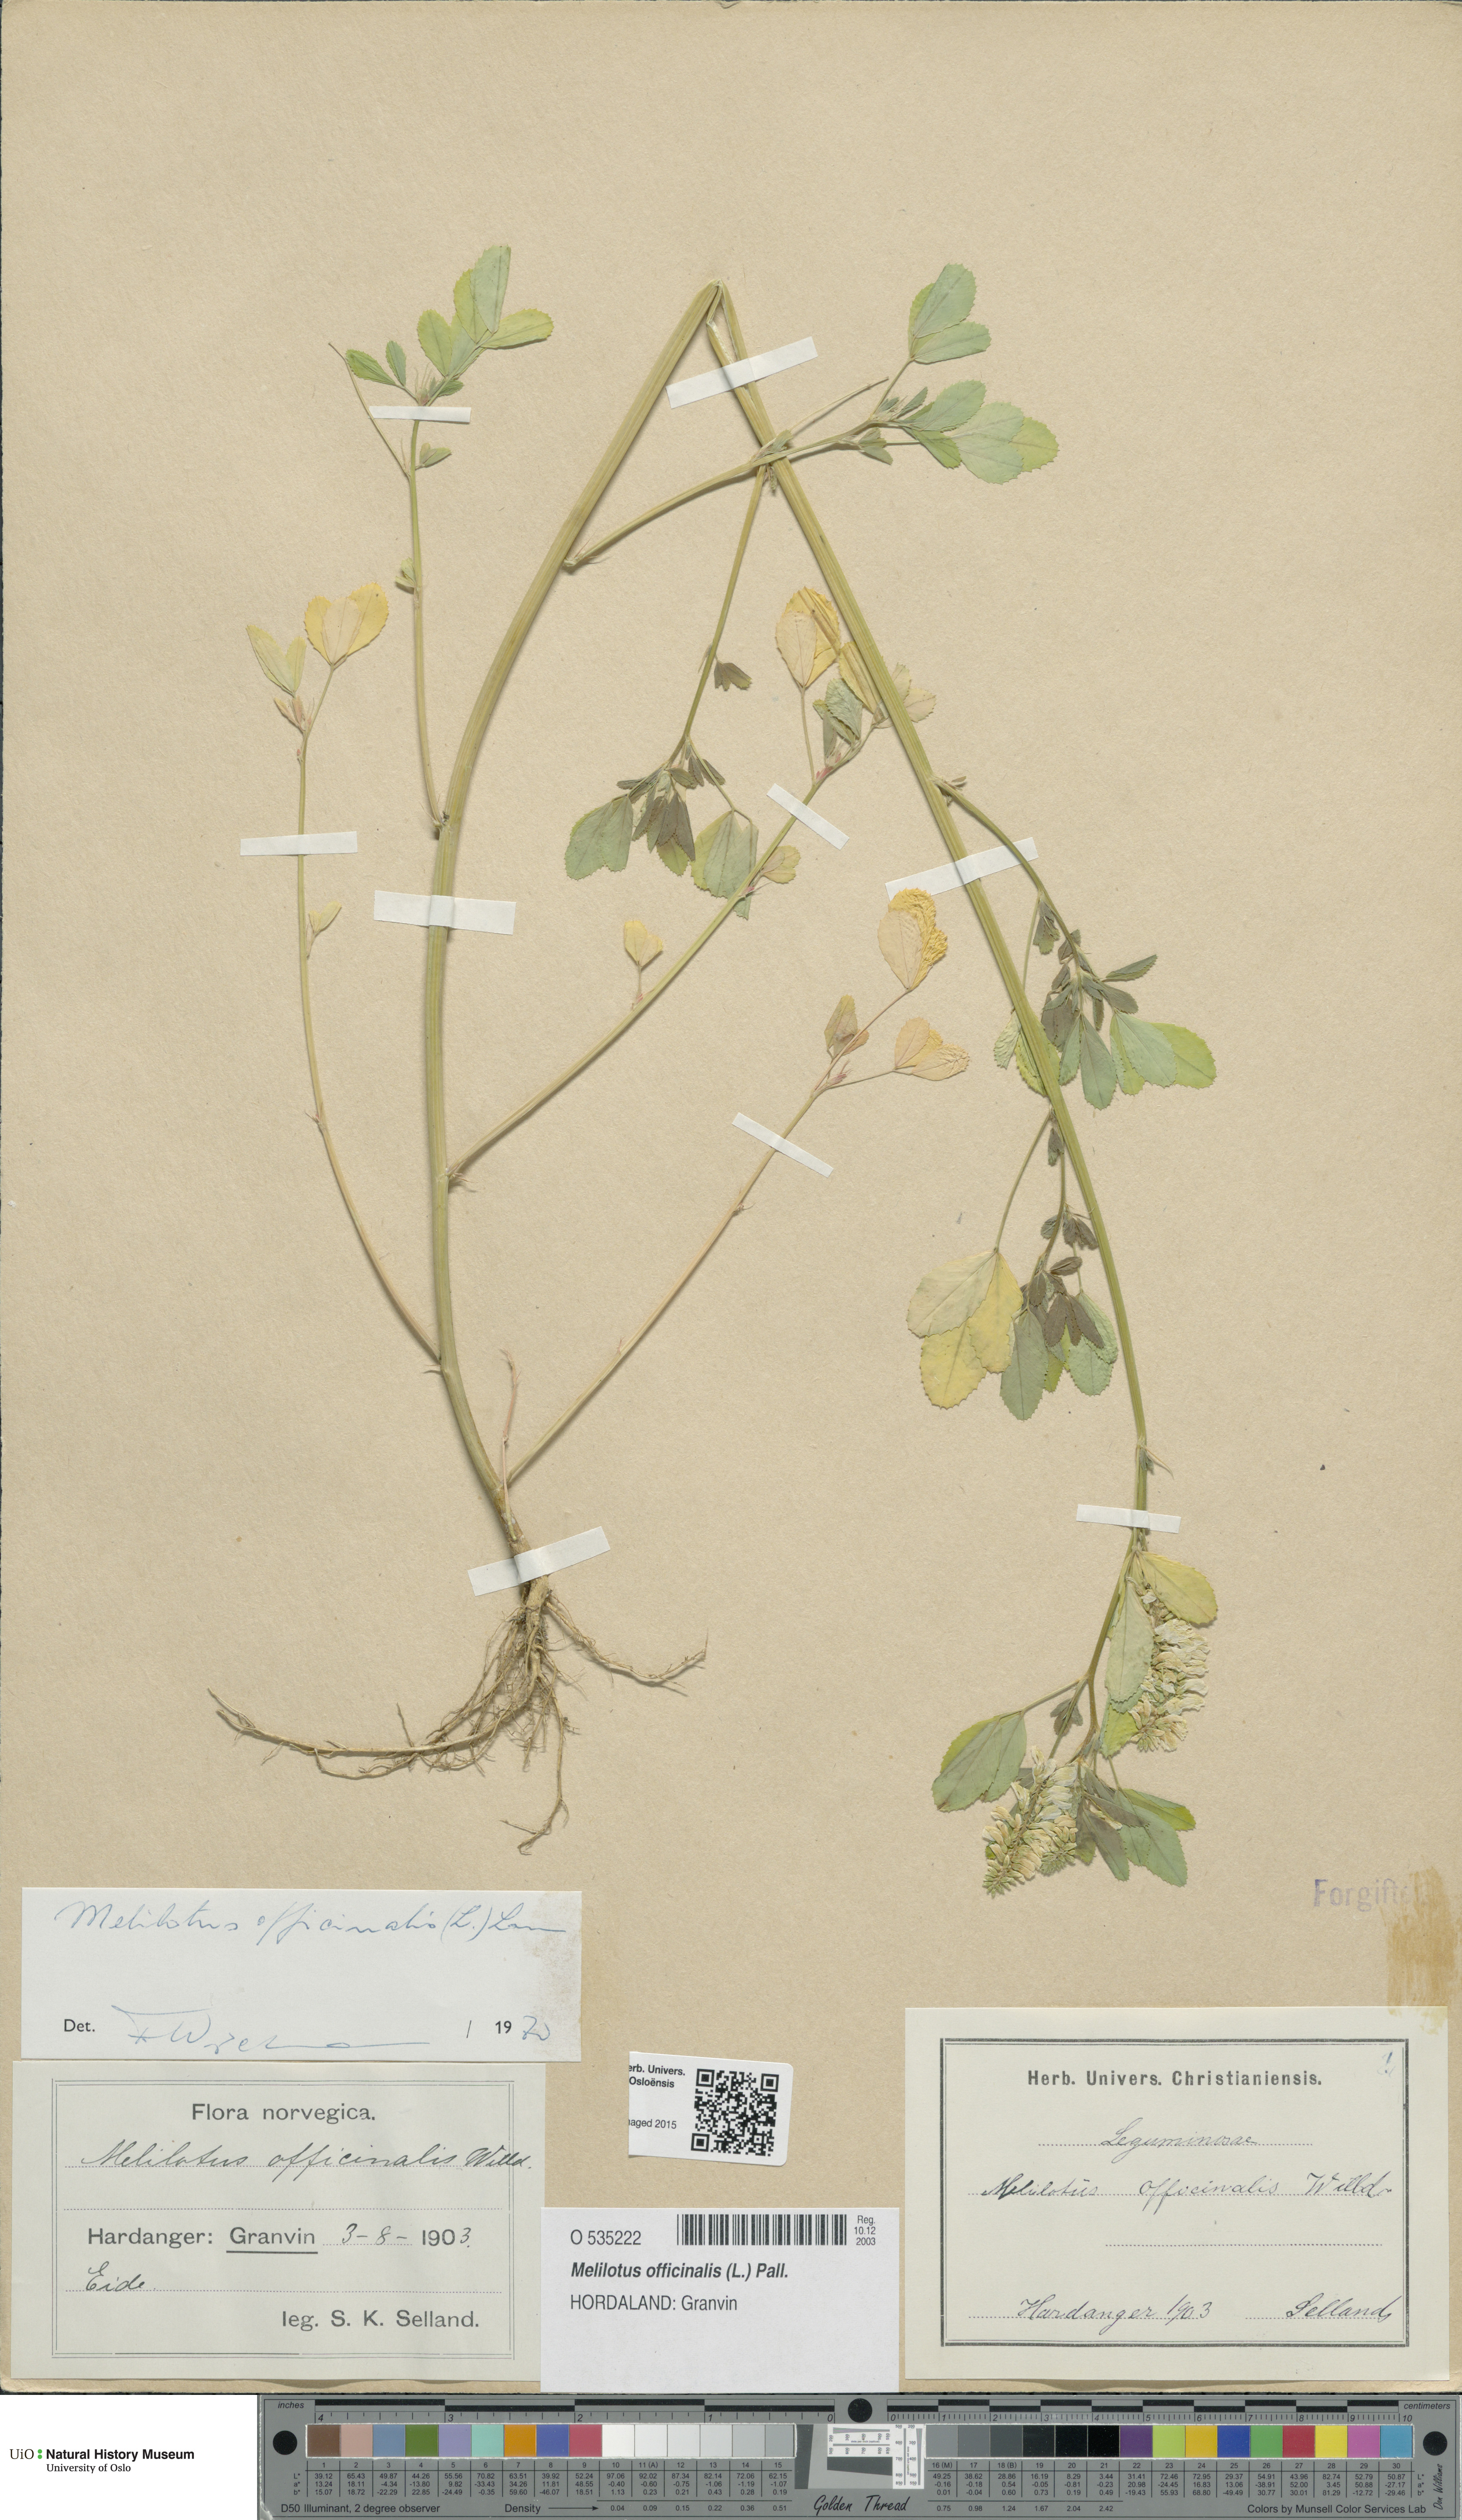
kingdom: Plantae
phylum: Tracheophyta
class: Magnoliopsida
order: Fabales
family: Fabaceae
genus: Melilotus
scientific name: Melilotus officinalis
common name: Sweetclover
